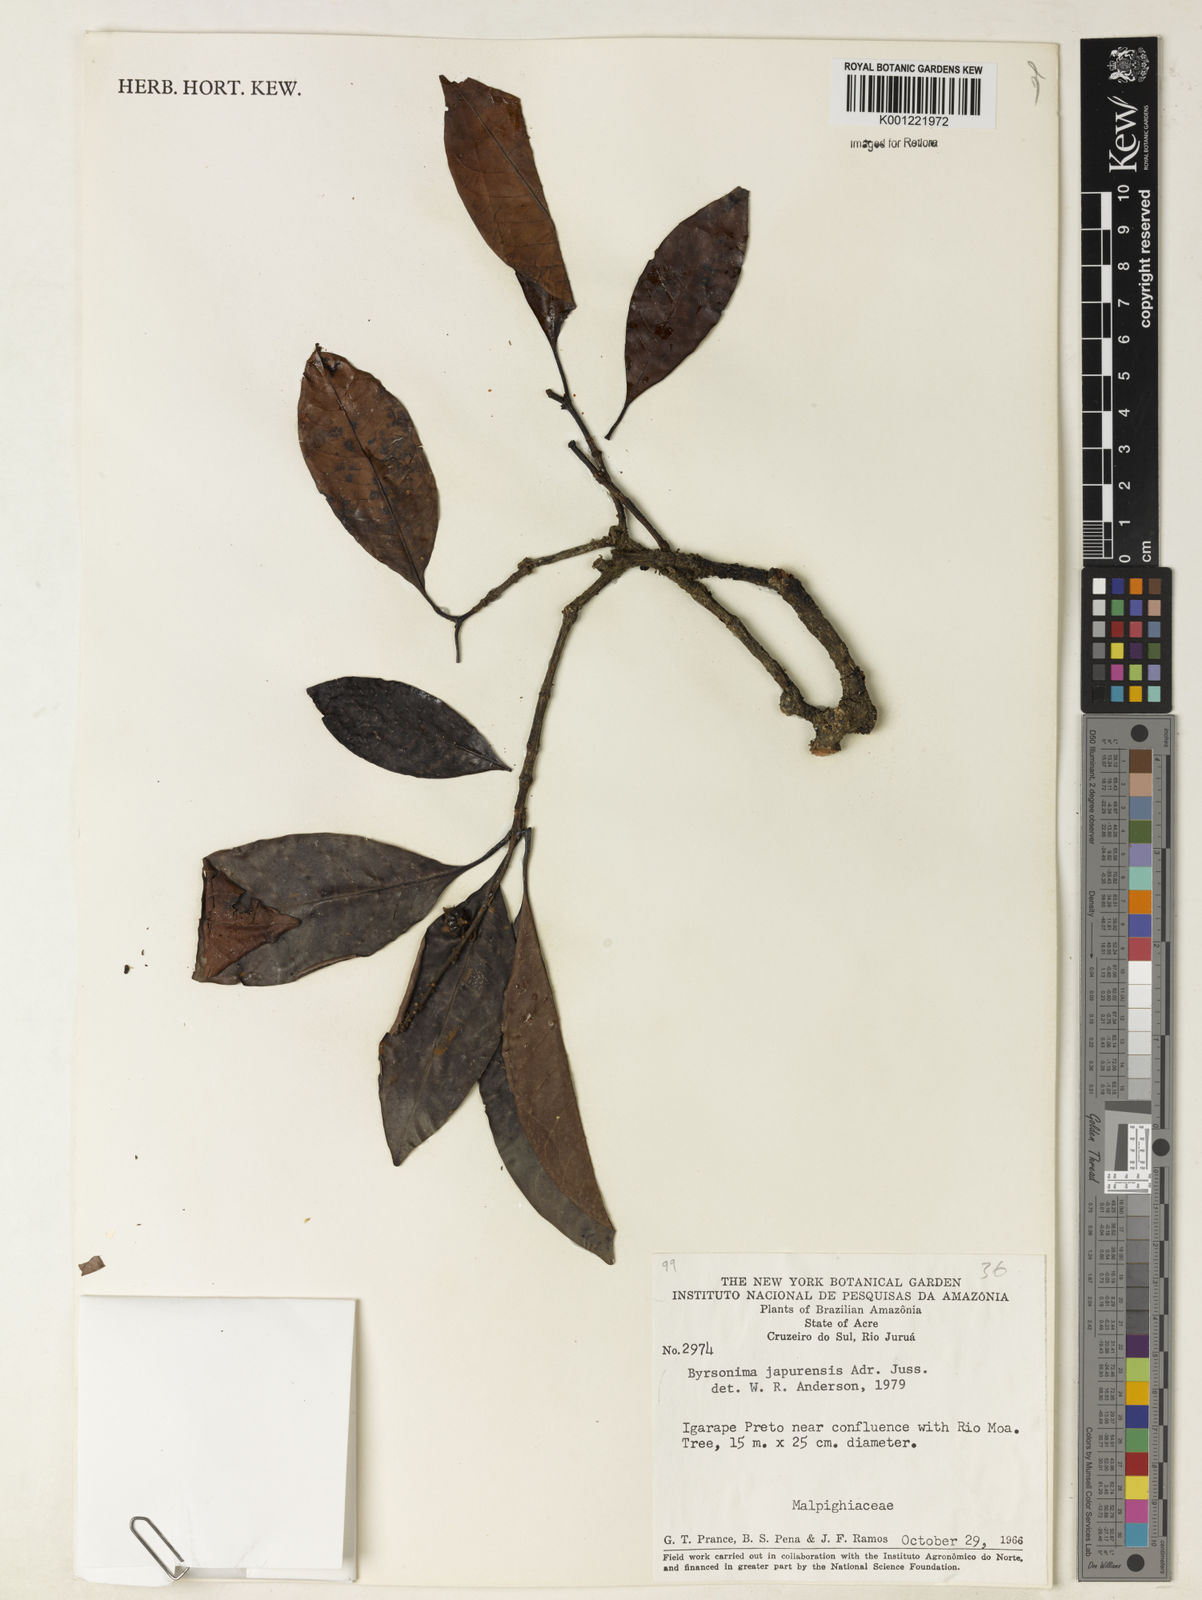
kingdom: Plantae
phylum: Tracheophyta
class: Magnoliopsida
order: Malpighiales
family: Malpighiaceae
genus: Byrsonima
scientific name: Byrsonima japurensis
